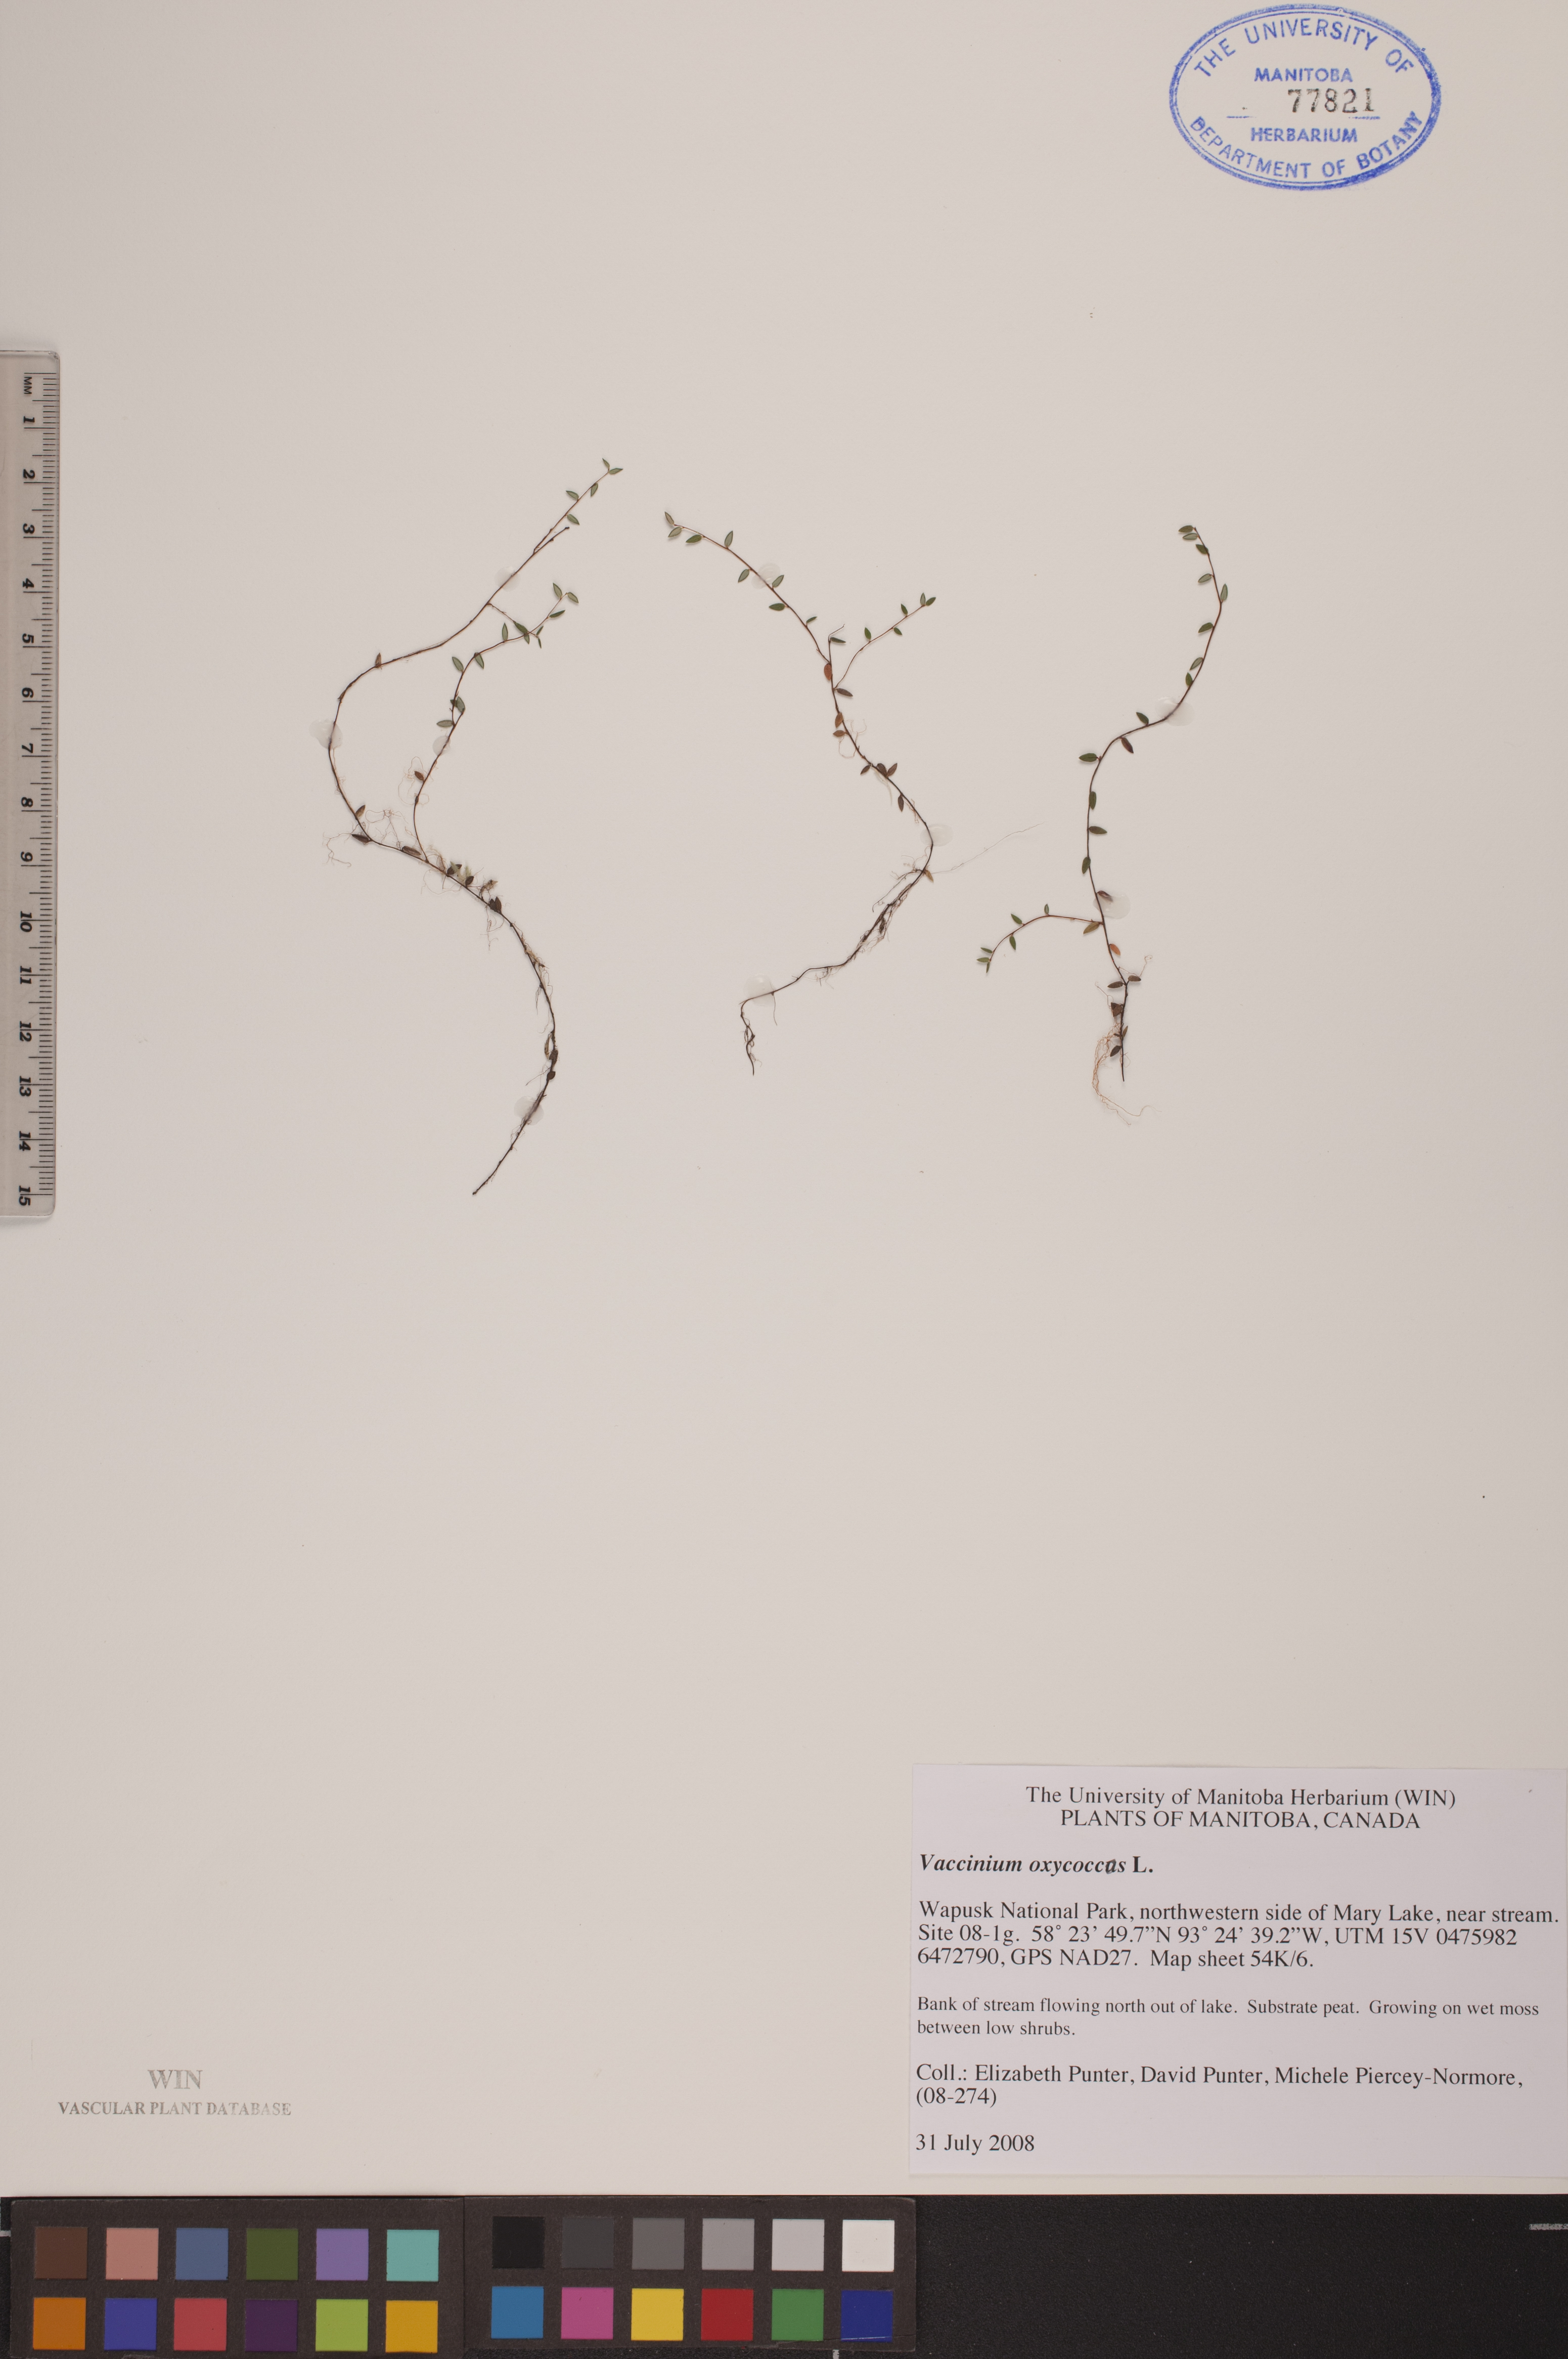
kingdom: Plantae
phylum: Tracheophyta
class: Magnoliopsida
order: Ericales
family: Ericaceae
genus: Vaccinium
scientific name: Vaccinium oxycoccos
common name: Cranberry
